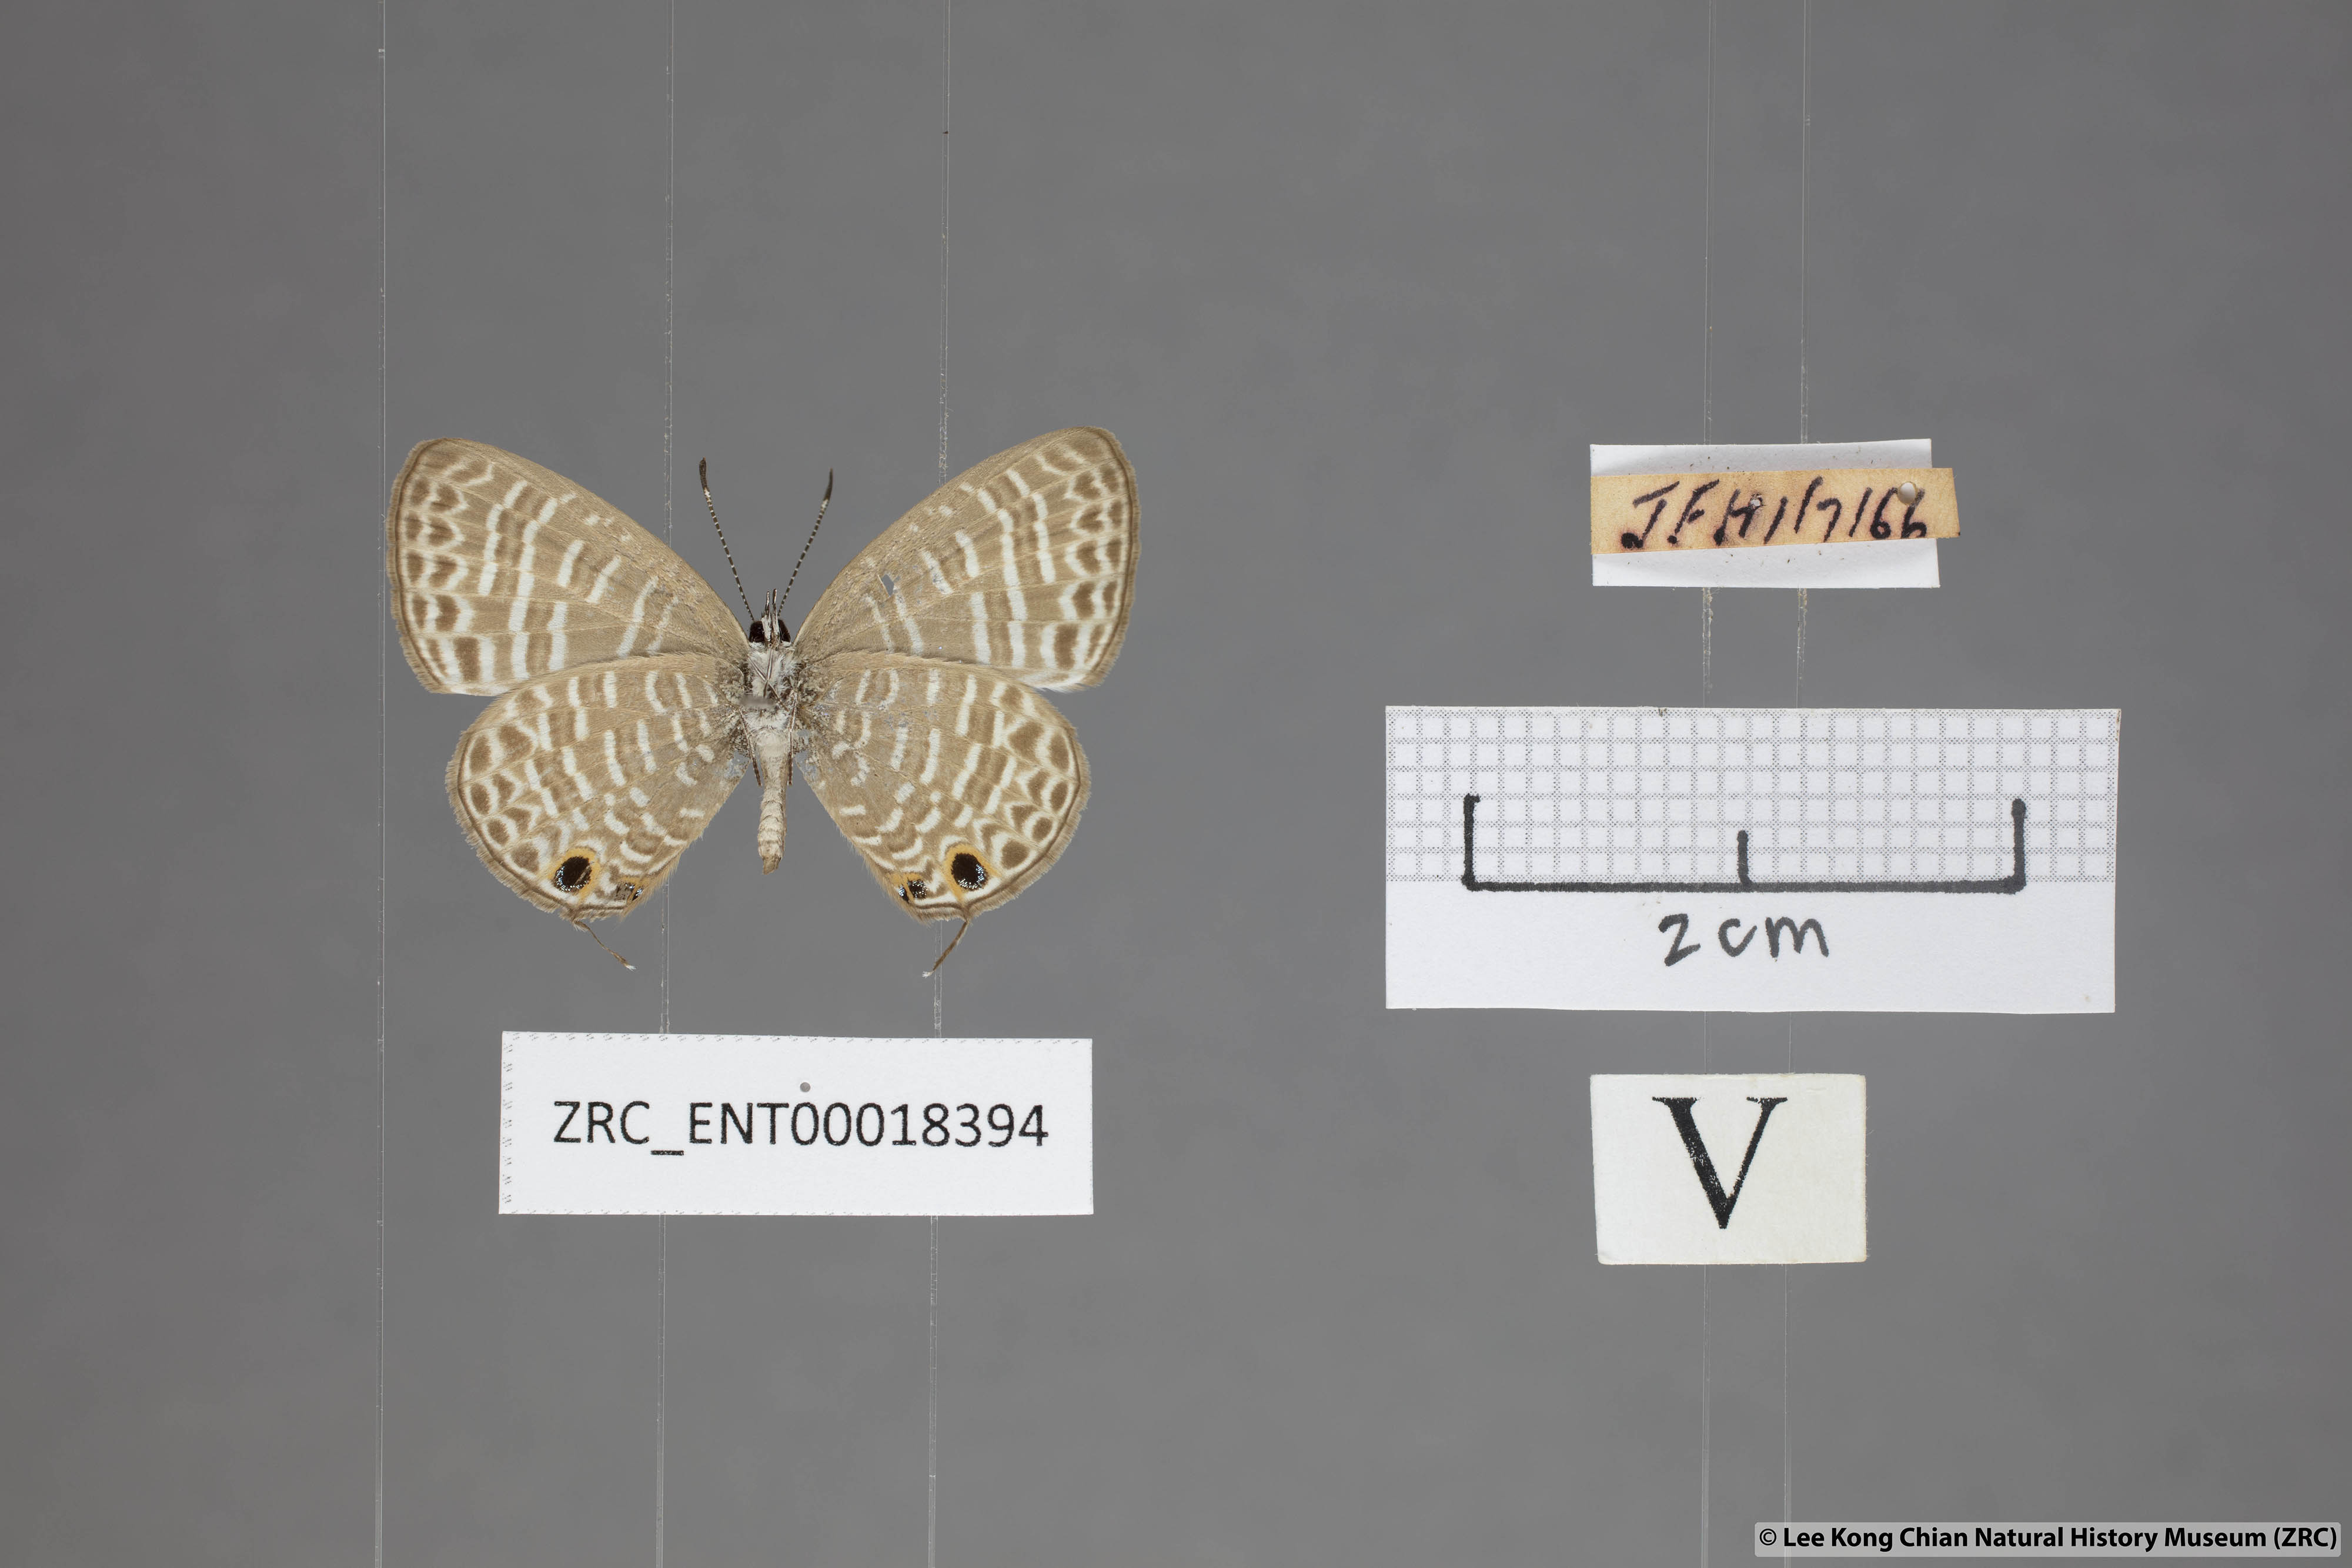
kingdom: Animalia
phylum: Arthropoda
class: Insecta
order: Lepidoptera
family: Lycaenidae
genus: Nacaduba
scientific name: Nacaduba kurava
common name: Transparent 6-line blue
